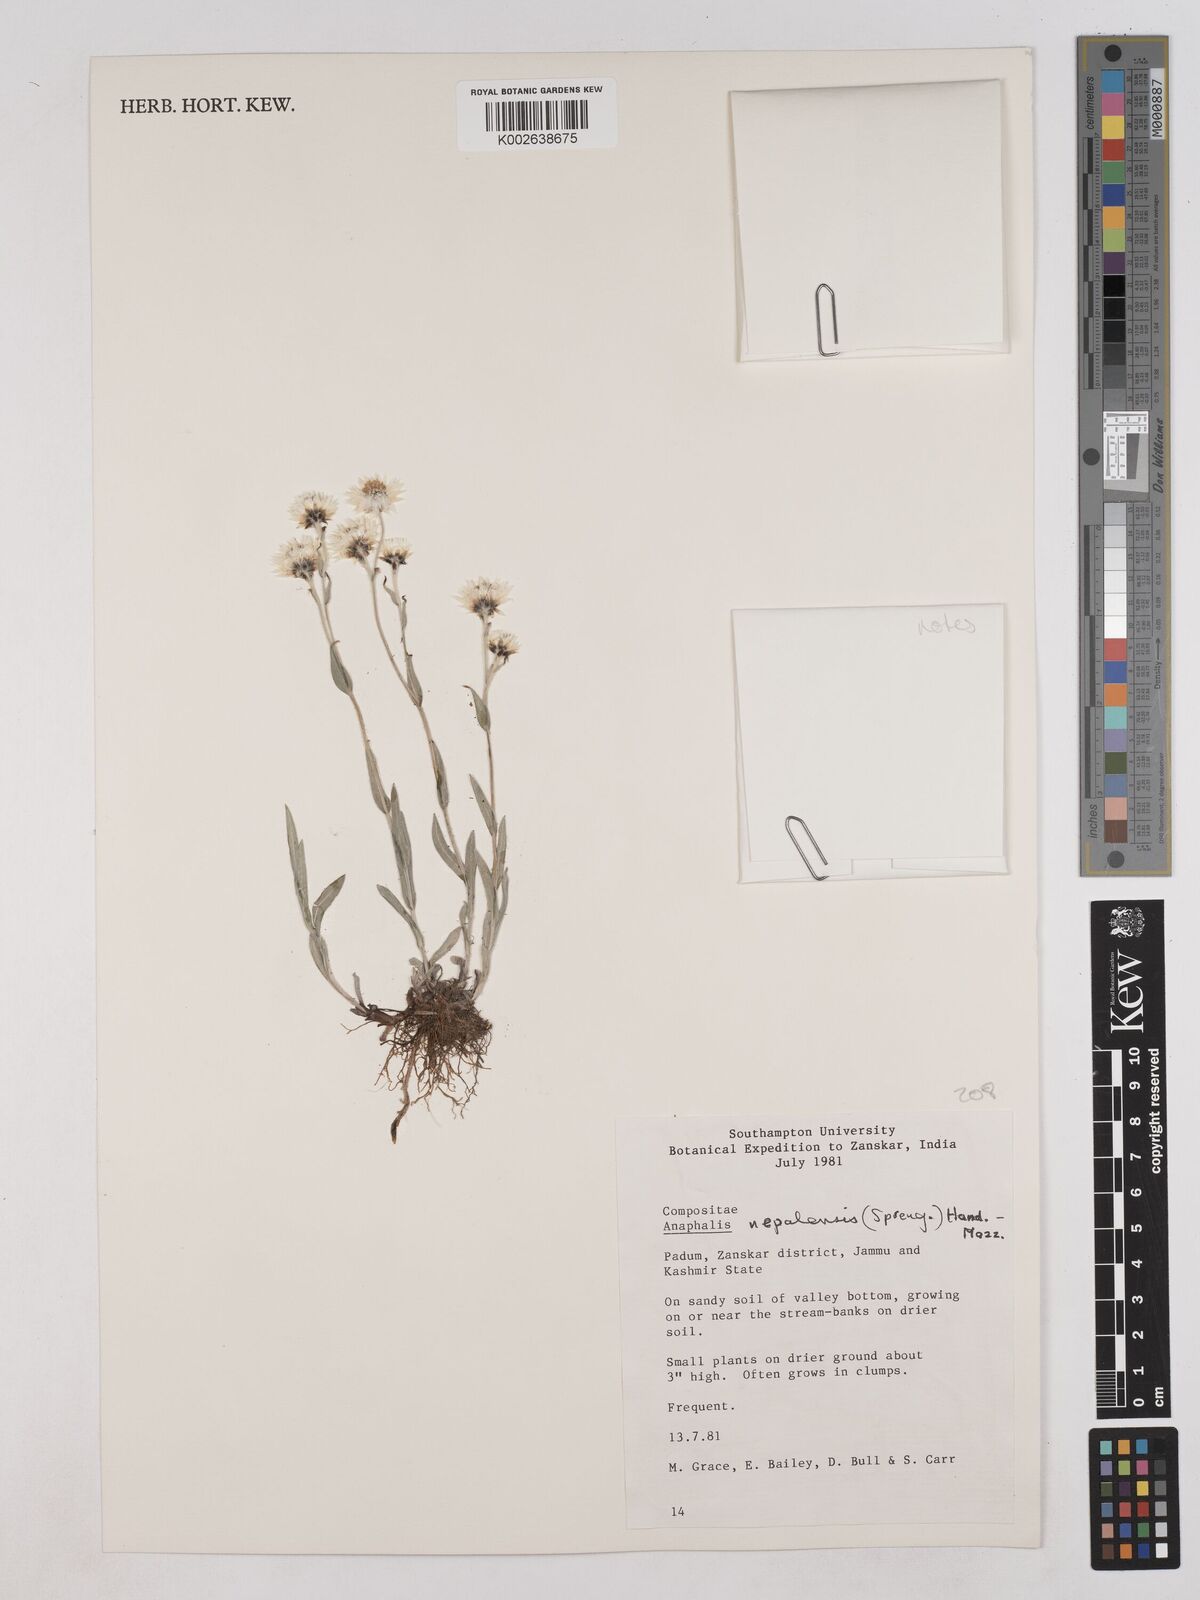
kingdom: Plantae
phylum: Tracheophyta
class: Magnoliopsida
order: Asterales
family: Asteraceae
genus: Anaphalis
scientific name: Anaphalis nepalensis
